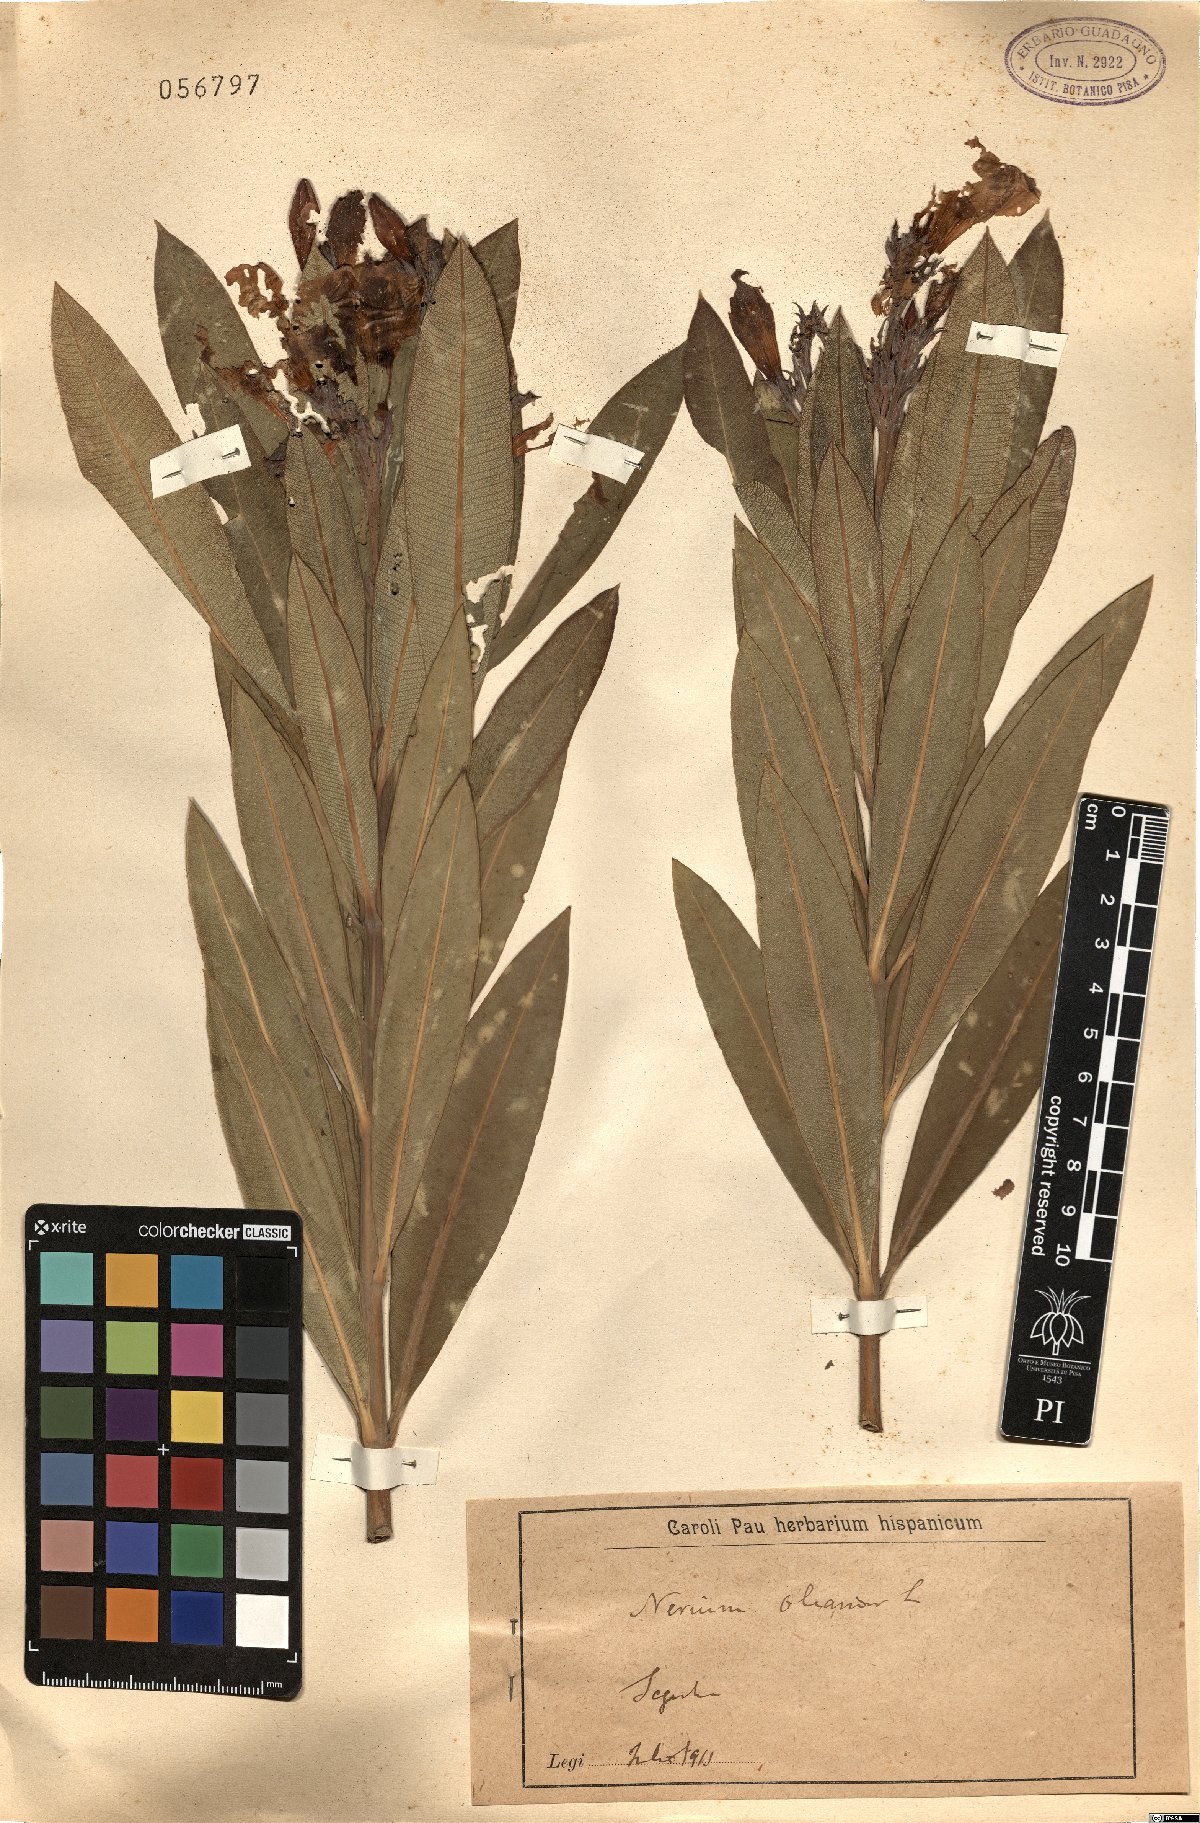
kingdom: Plantae
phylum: Tracheophyta
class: Magnoliopsida
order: Gentianales
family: Apocynaceae
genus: Nerium
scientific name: Nerium oleander
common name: Oleander
